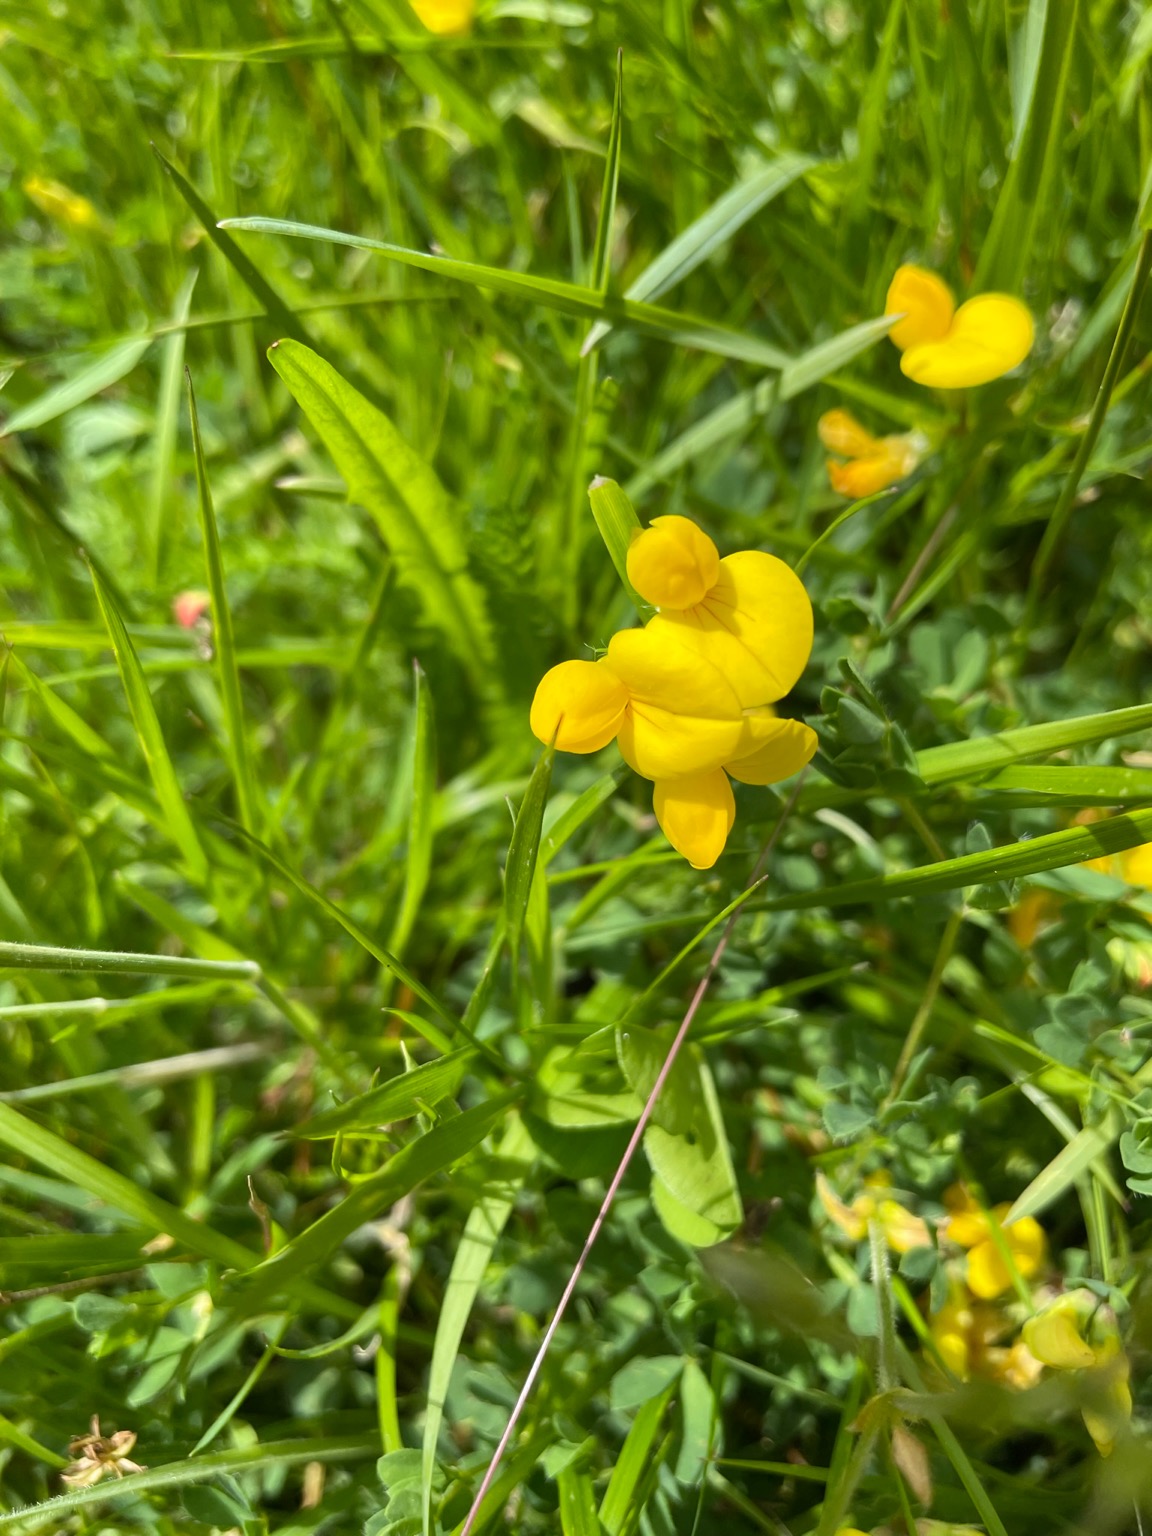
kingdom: Plantae
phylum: Tracheophyta
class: Magnoliopsida
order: Fabales
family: Fabaceae
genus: Lotus
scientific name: Lotus corniculatus
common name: Almindelig kællingetand
